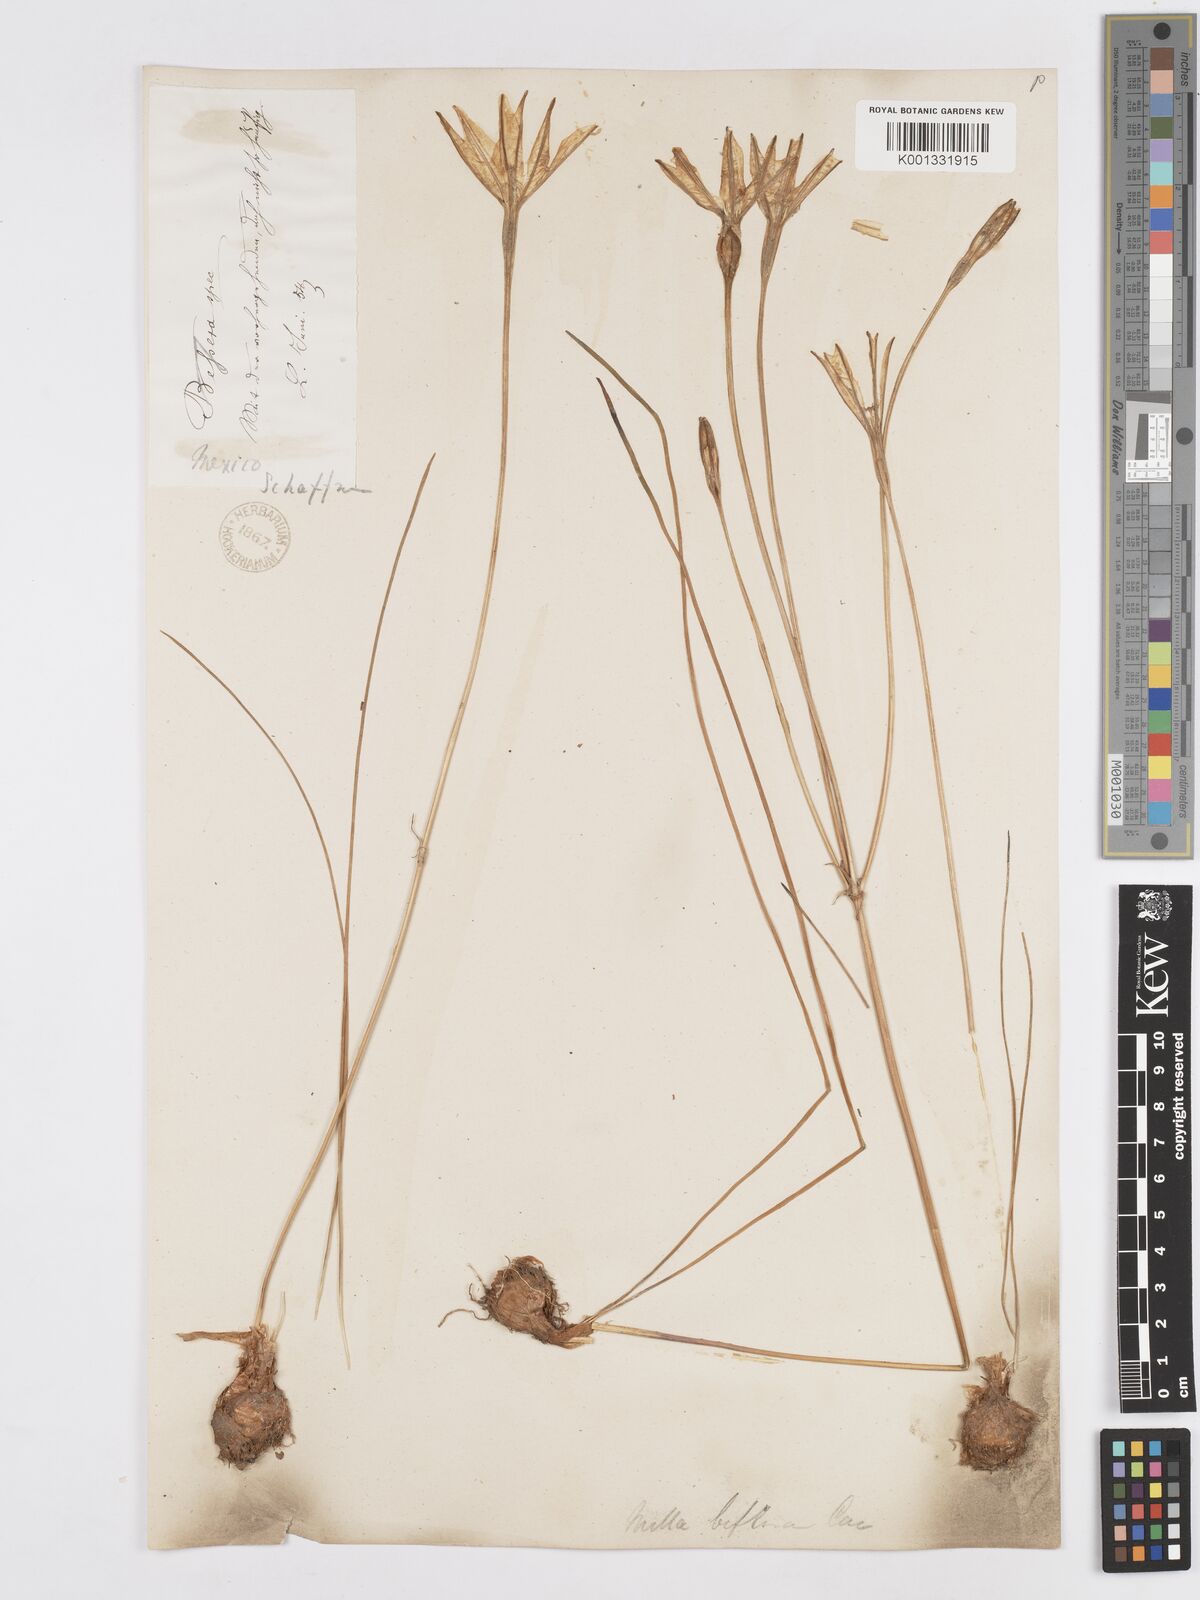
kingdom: Plantae
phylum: Tracheophyta
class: Liliopsida
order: Asparagales
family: Asparagaceae
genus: Milla
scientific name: Milla biflora
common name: Mexican-star
